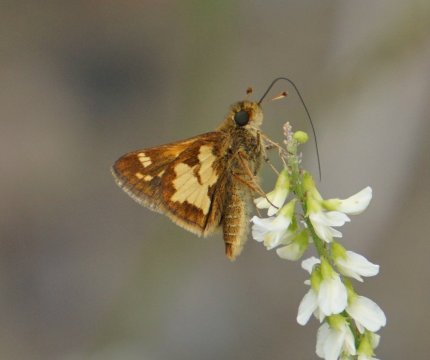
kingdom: Animalia
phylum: Arthropoda
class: Insecta
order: Lepidoptera
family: Hesperiidae
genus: Polites
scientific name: Polites coras
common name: Peck's Skipper
